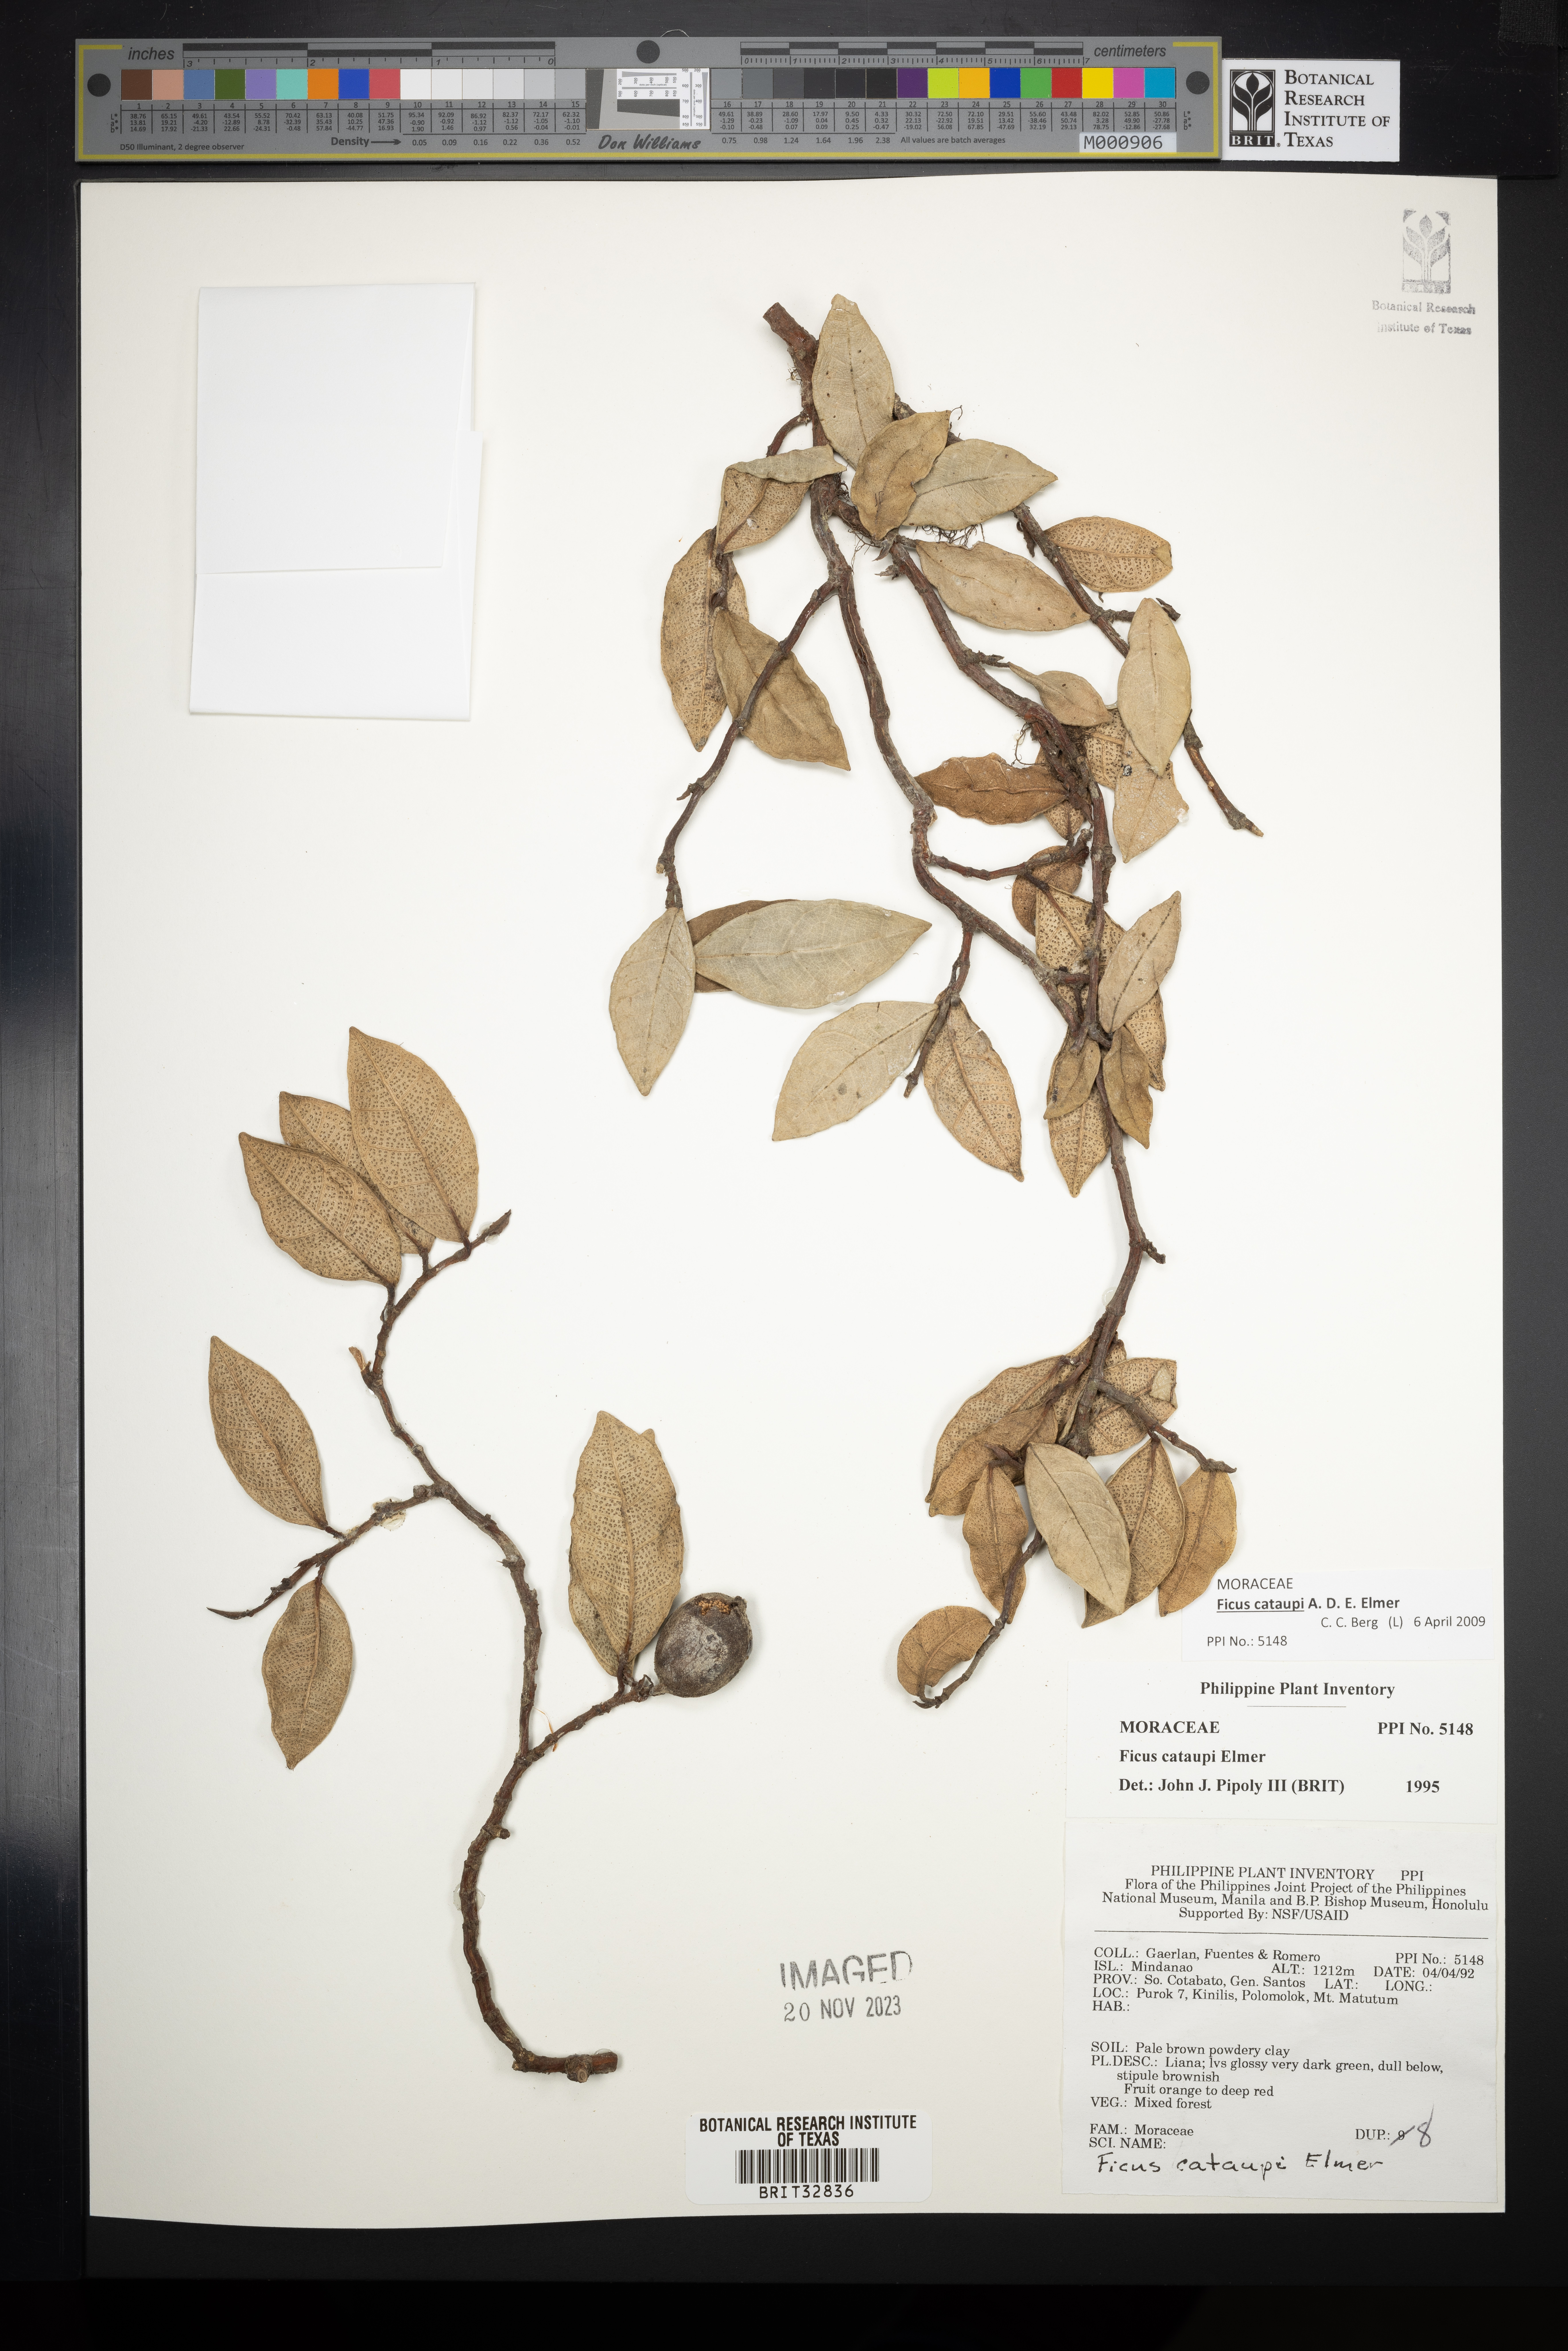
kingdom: Plantae
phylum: Tracheophyta
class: Magnoliopsida
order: Rosales
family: Moraceae
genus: Ficus
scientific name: Ficus cataupi
